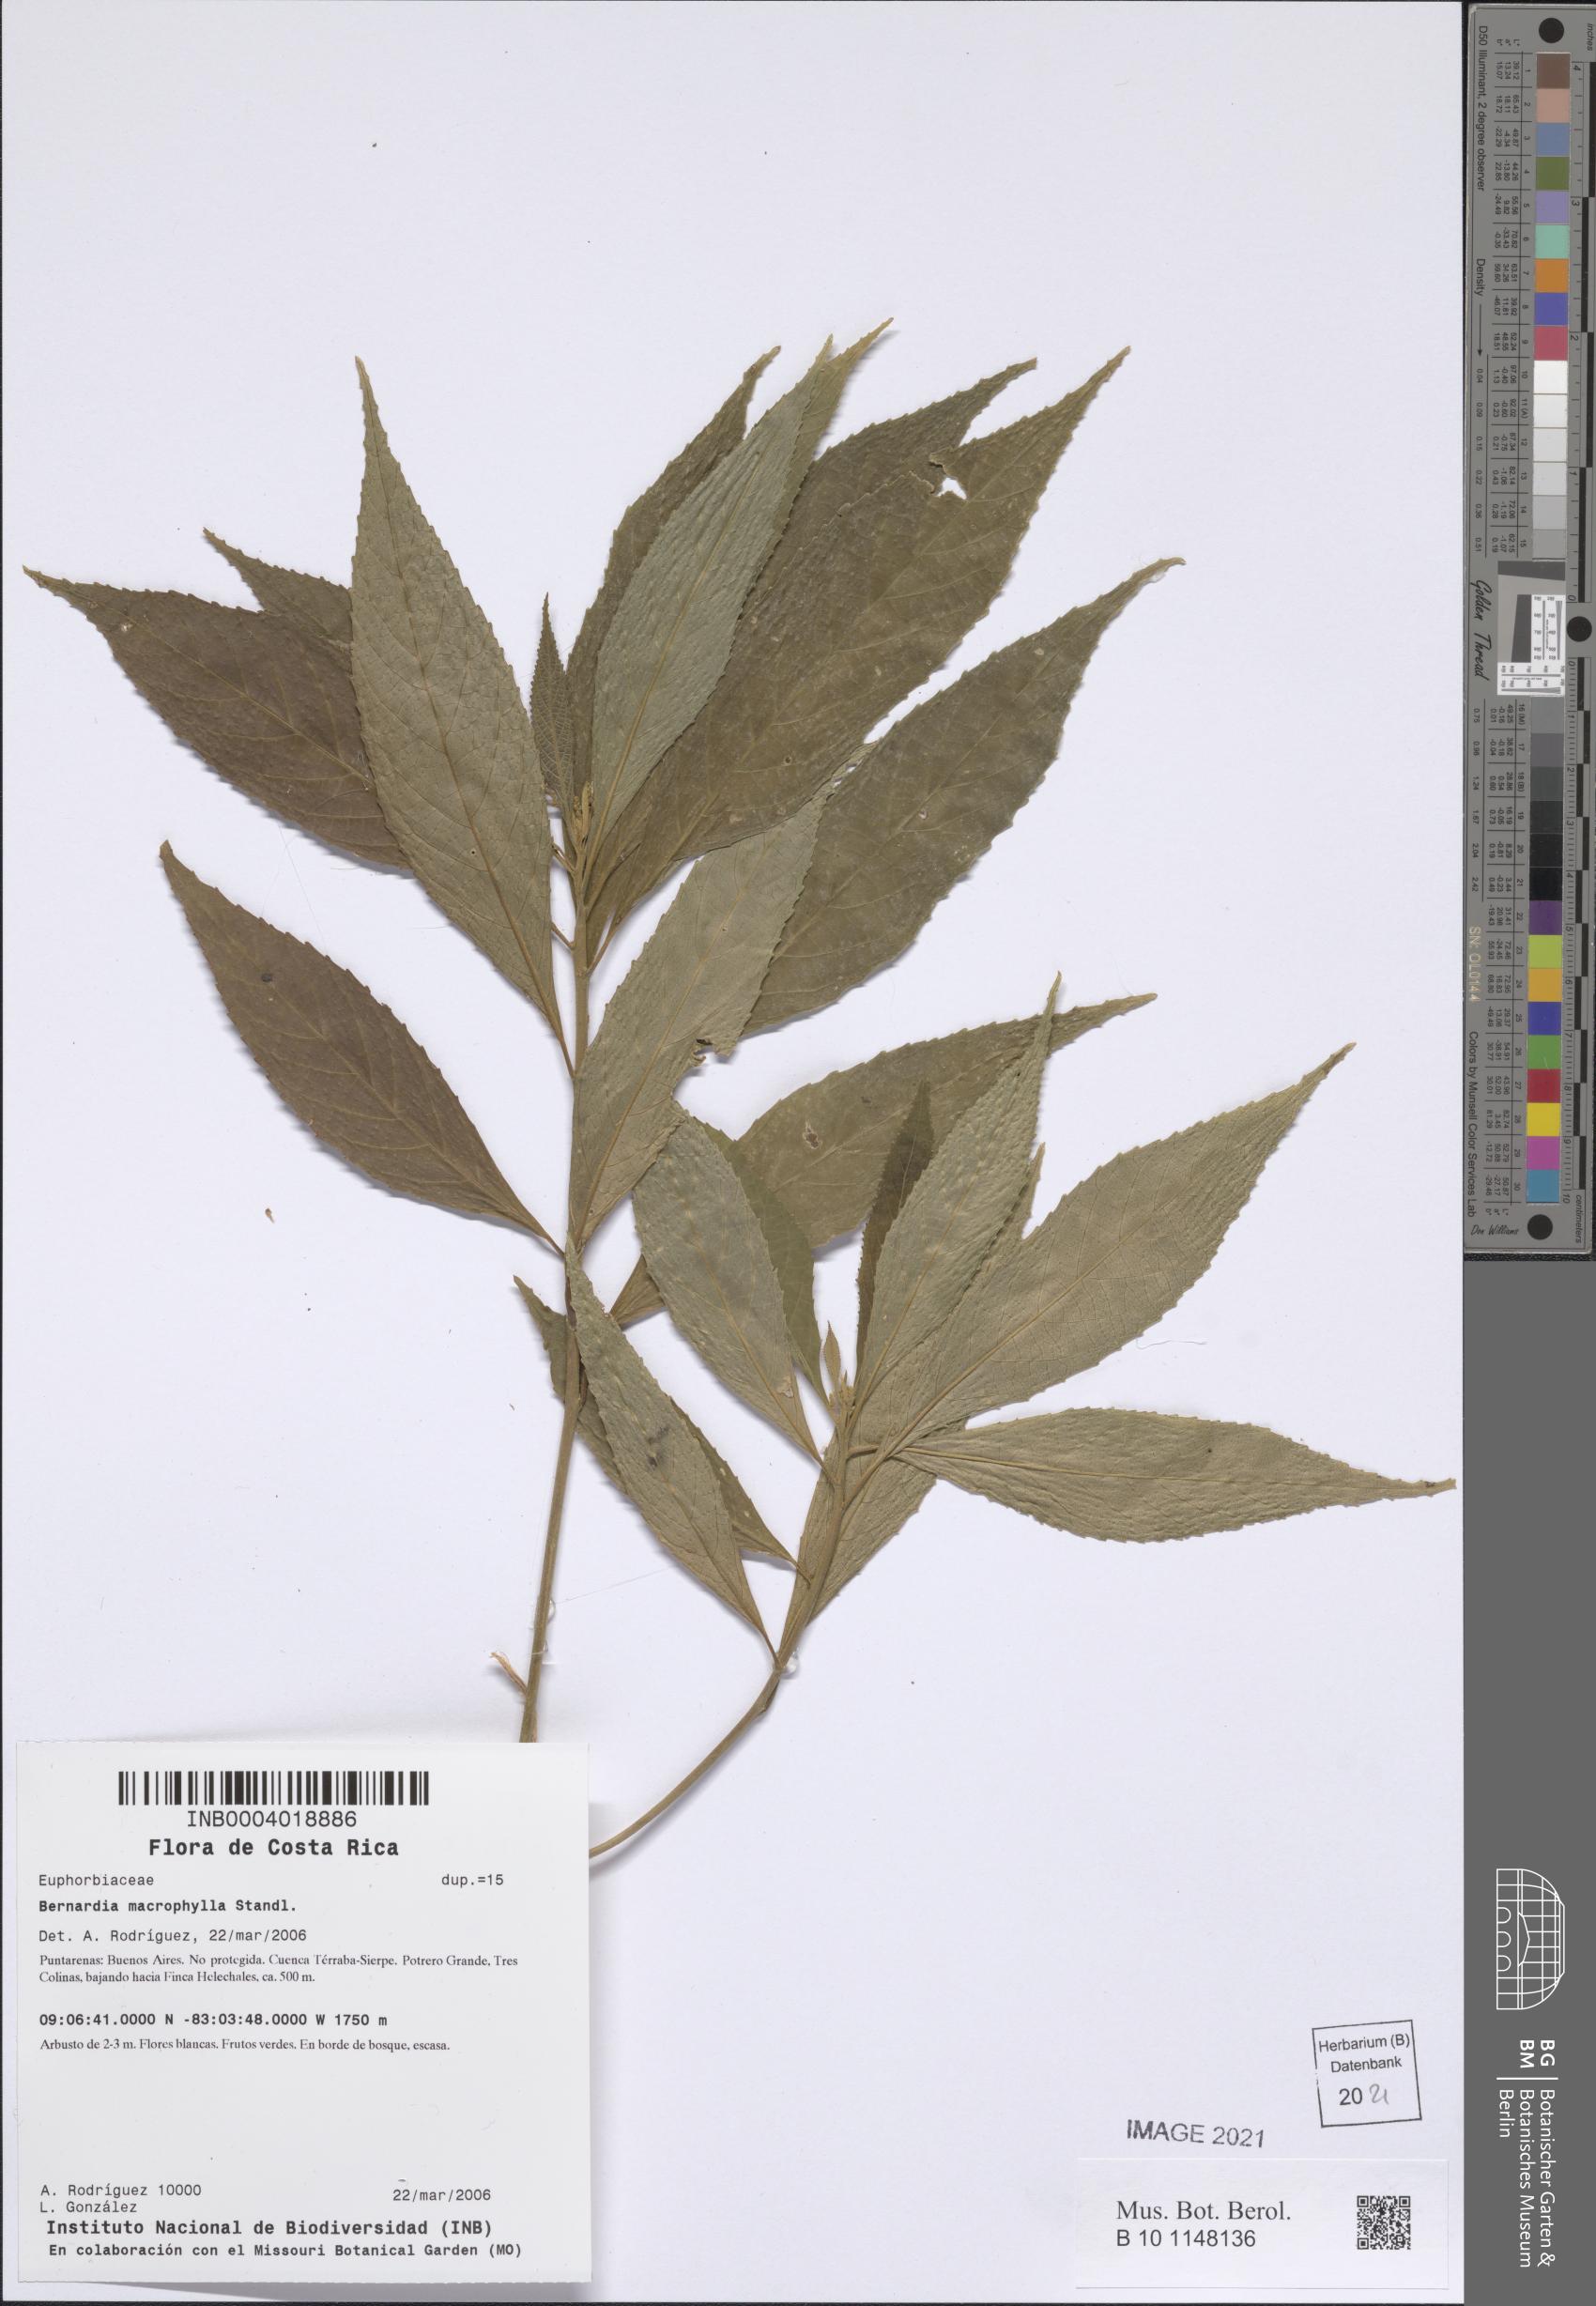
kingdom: Plantae
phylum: Tracheophyta
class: Magnoliopsida
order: Malpighiales
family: Euphorbiaceae
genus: Bernardia
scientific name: Bernardia macrophylla
